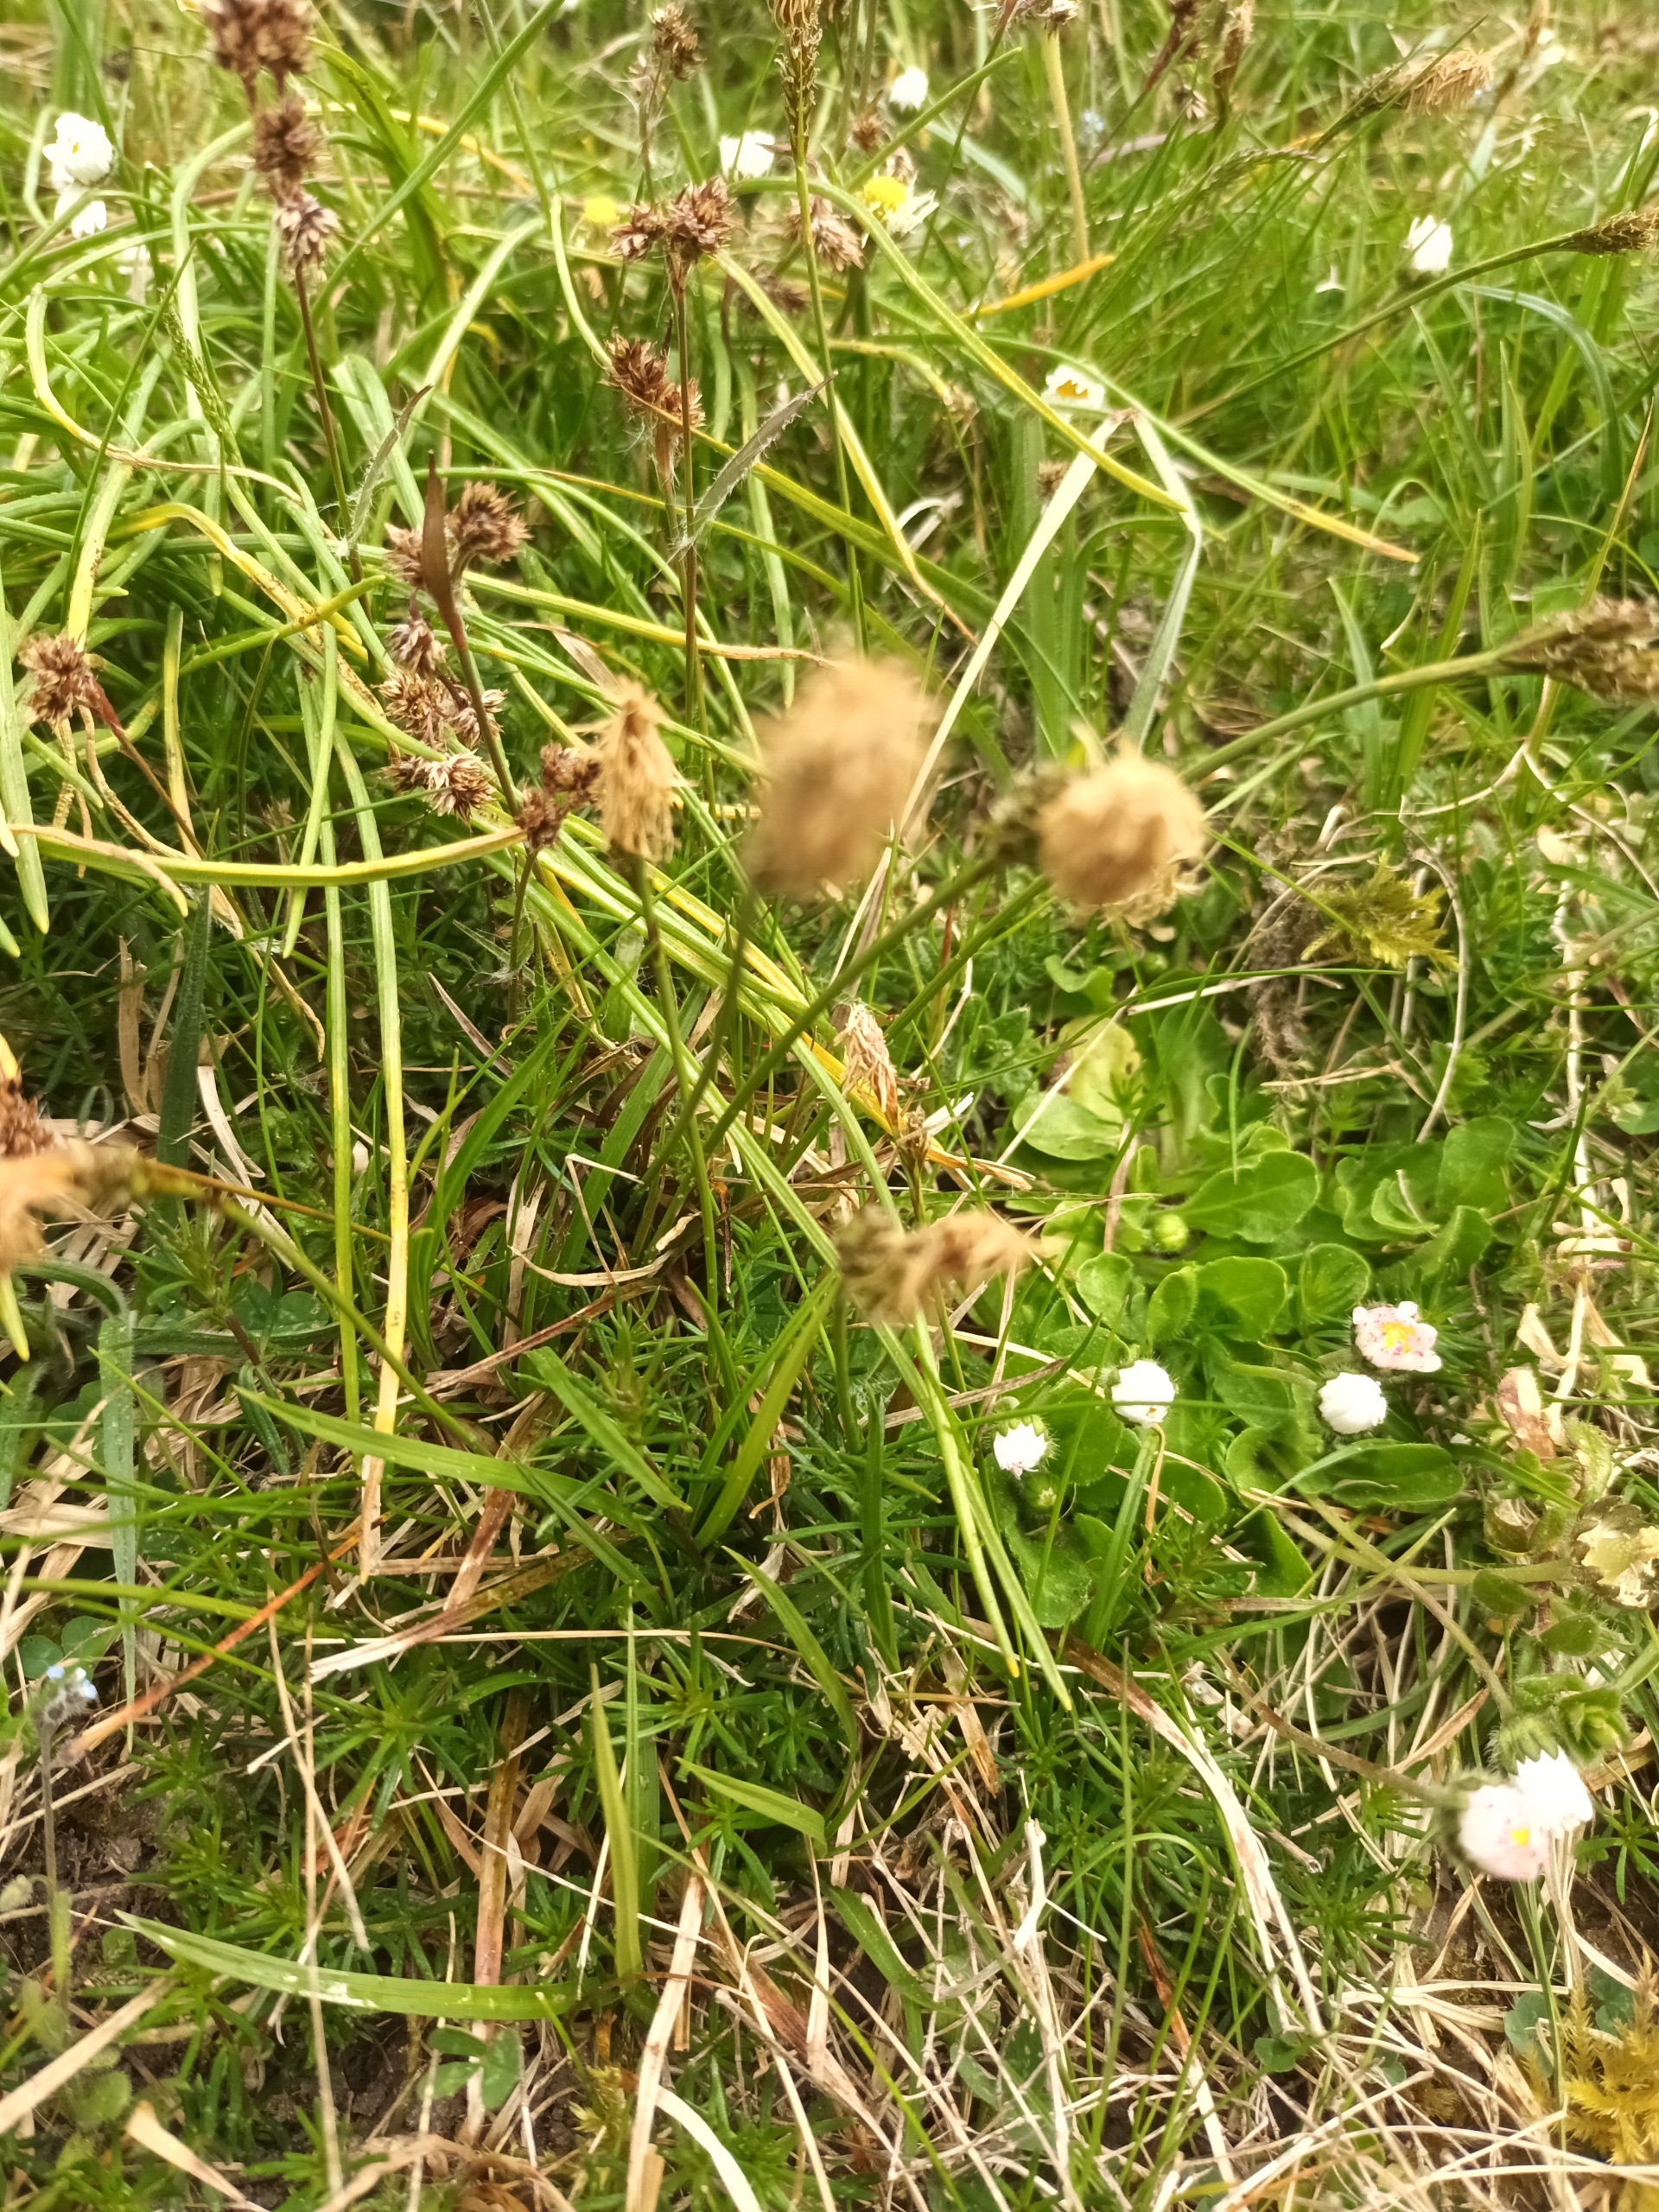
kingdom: Plantae
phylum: Tracheophyta
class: Liliopsida
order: Poales
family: Cyperaceae
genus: Carex
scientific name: Carex caryophyllea
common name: Vår-star
